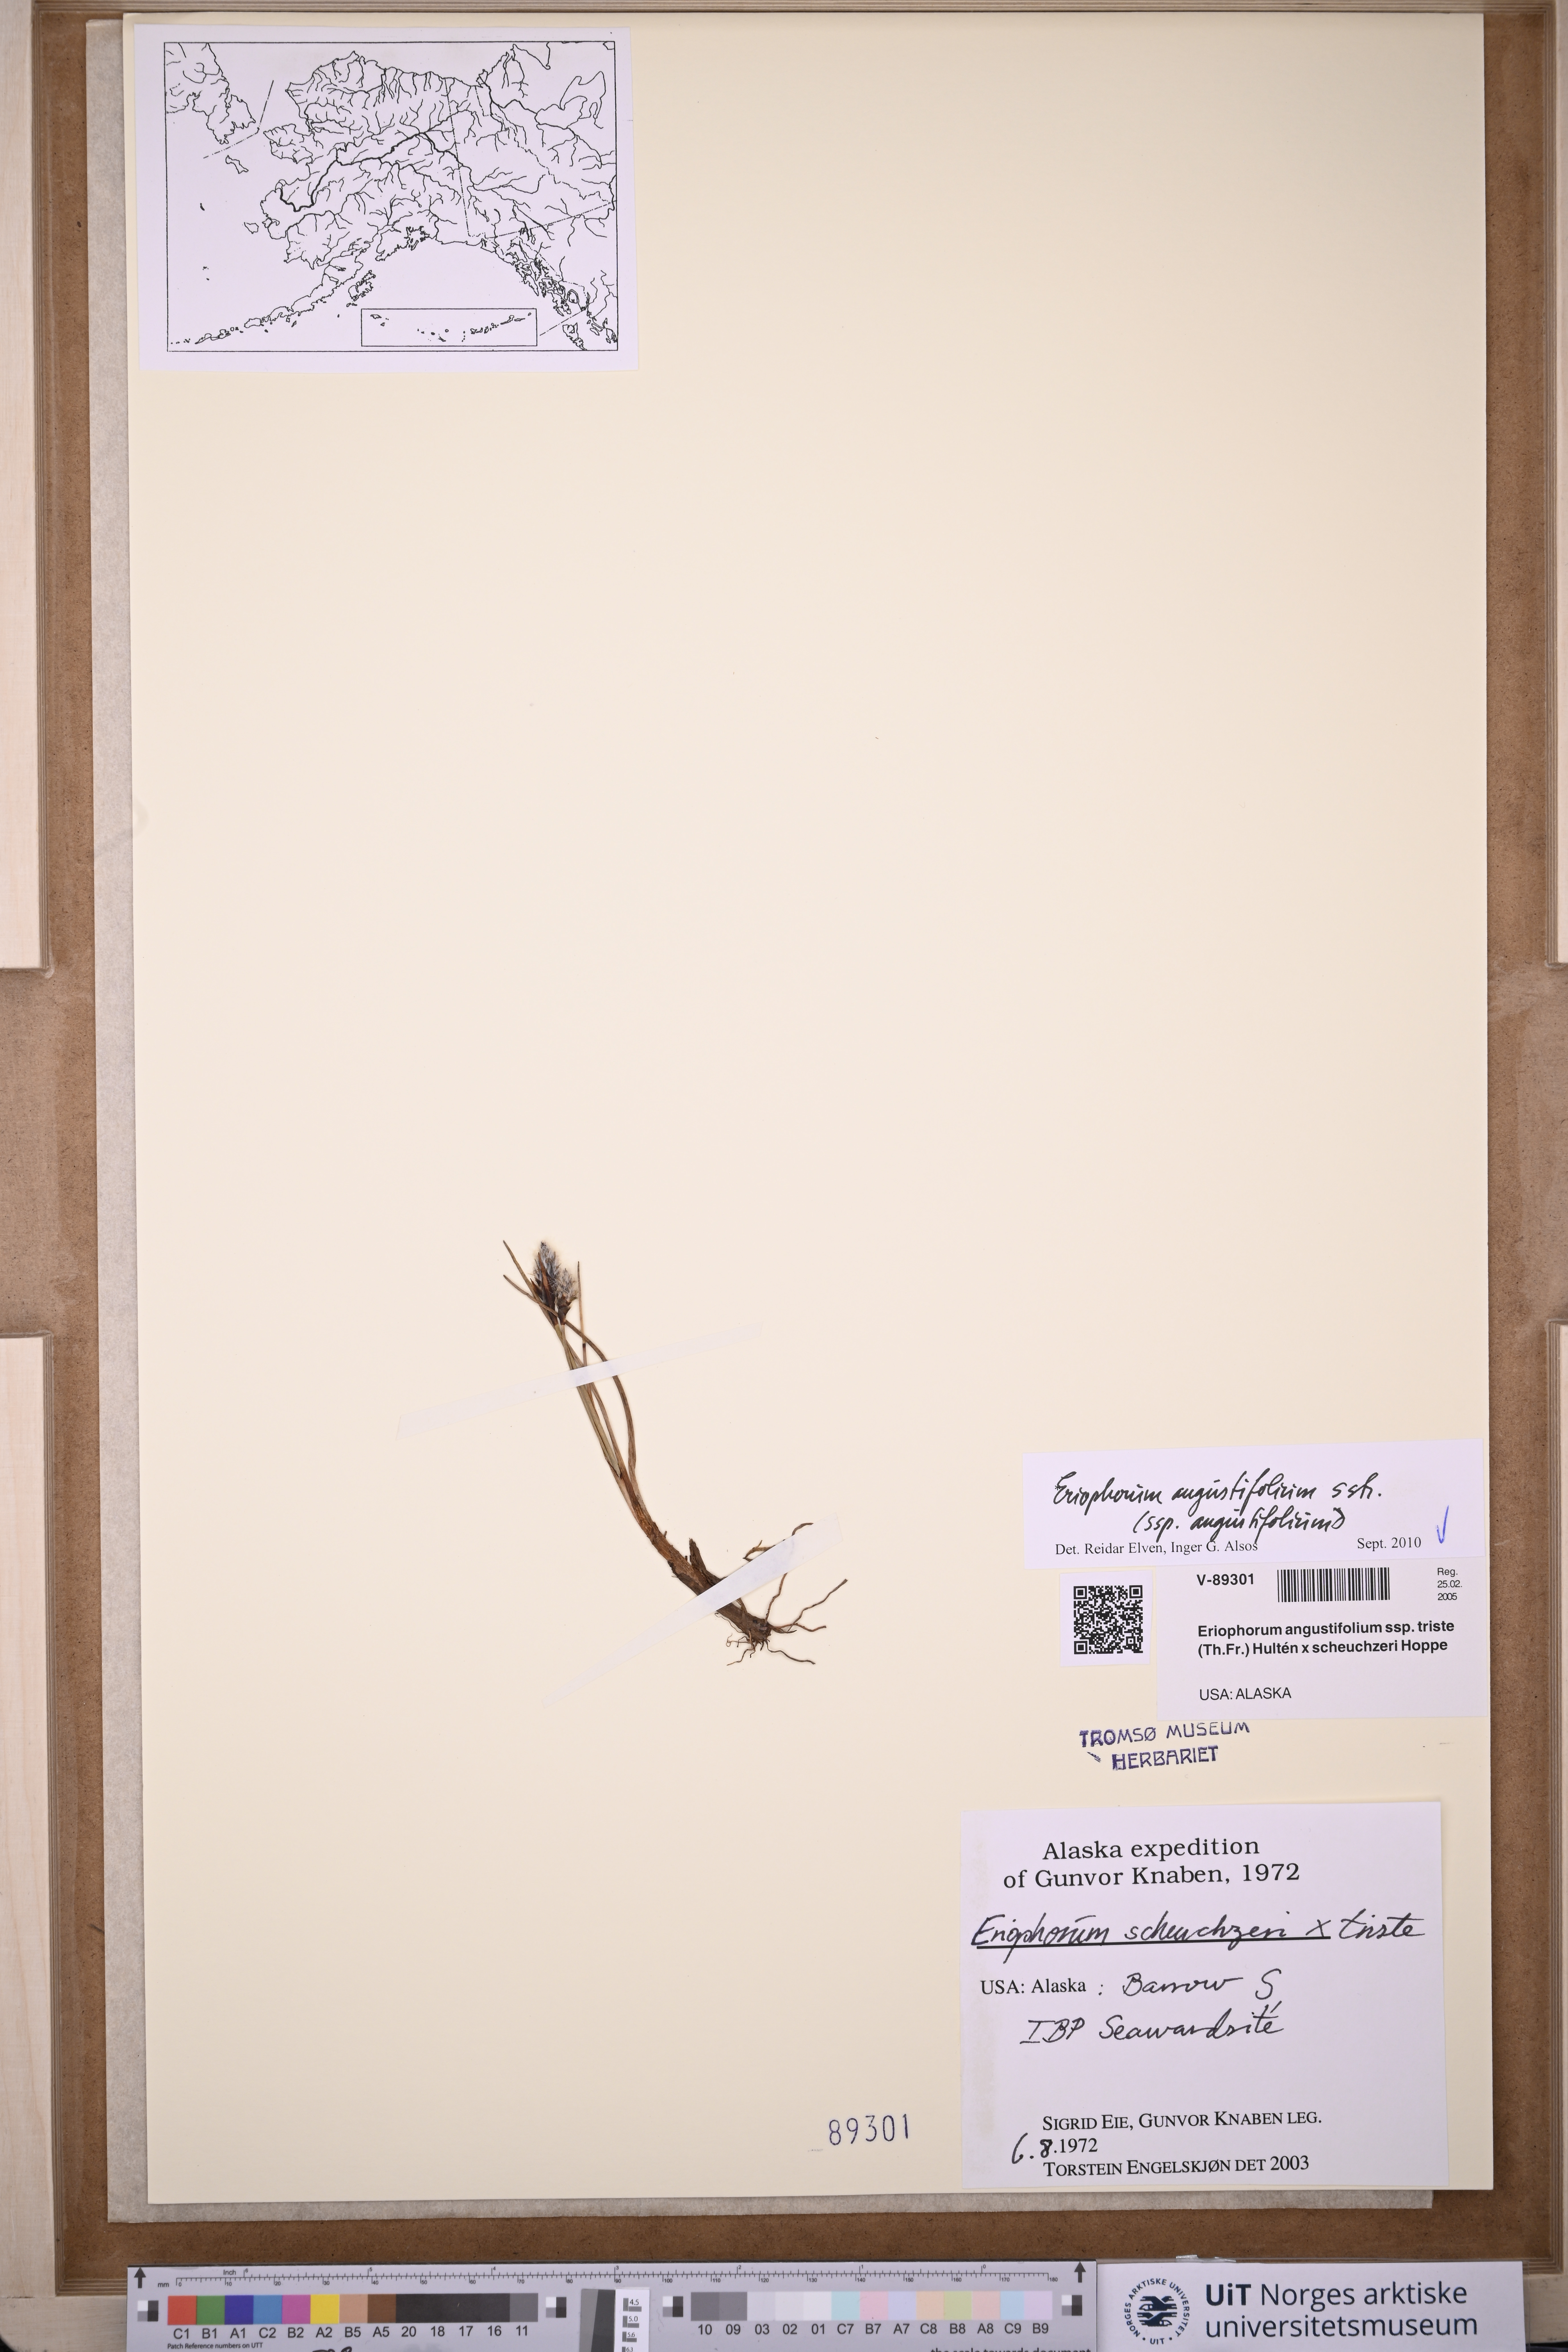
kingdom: Plantae
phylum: Tracheophyta
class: Liliopsida
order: Poales
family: Cyperaceae
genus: Eriophorum
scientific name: Eriophorum angustifolium
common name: Common cottongrass
